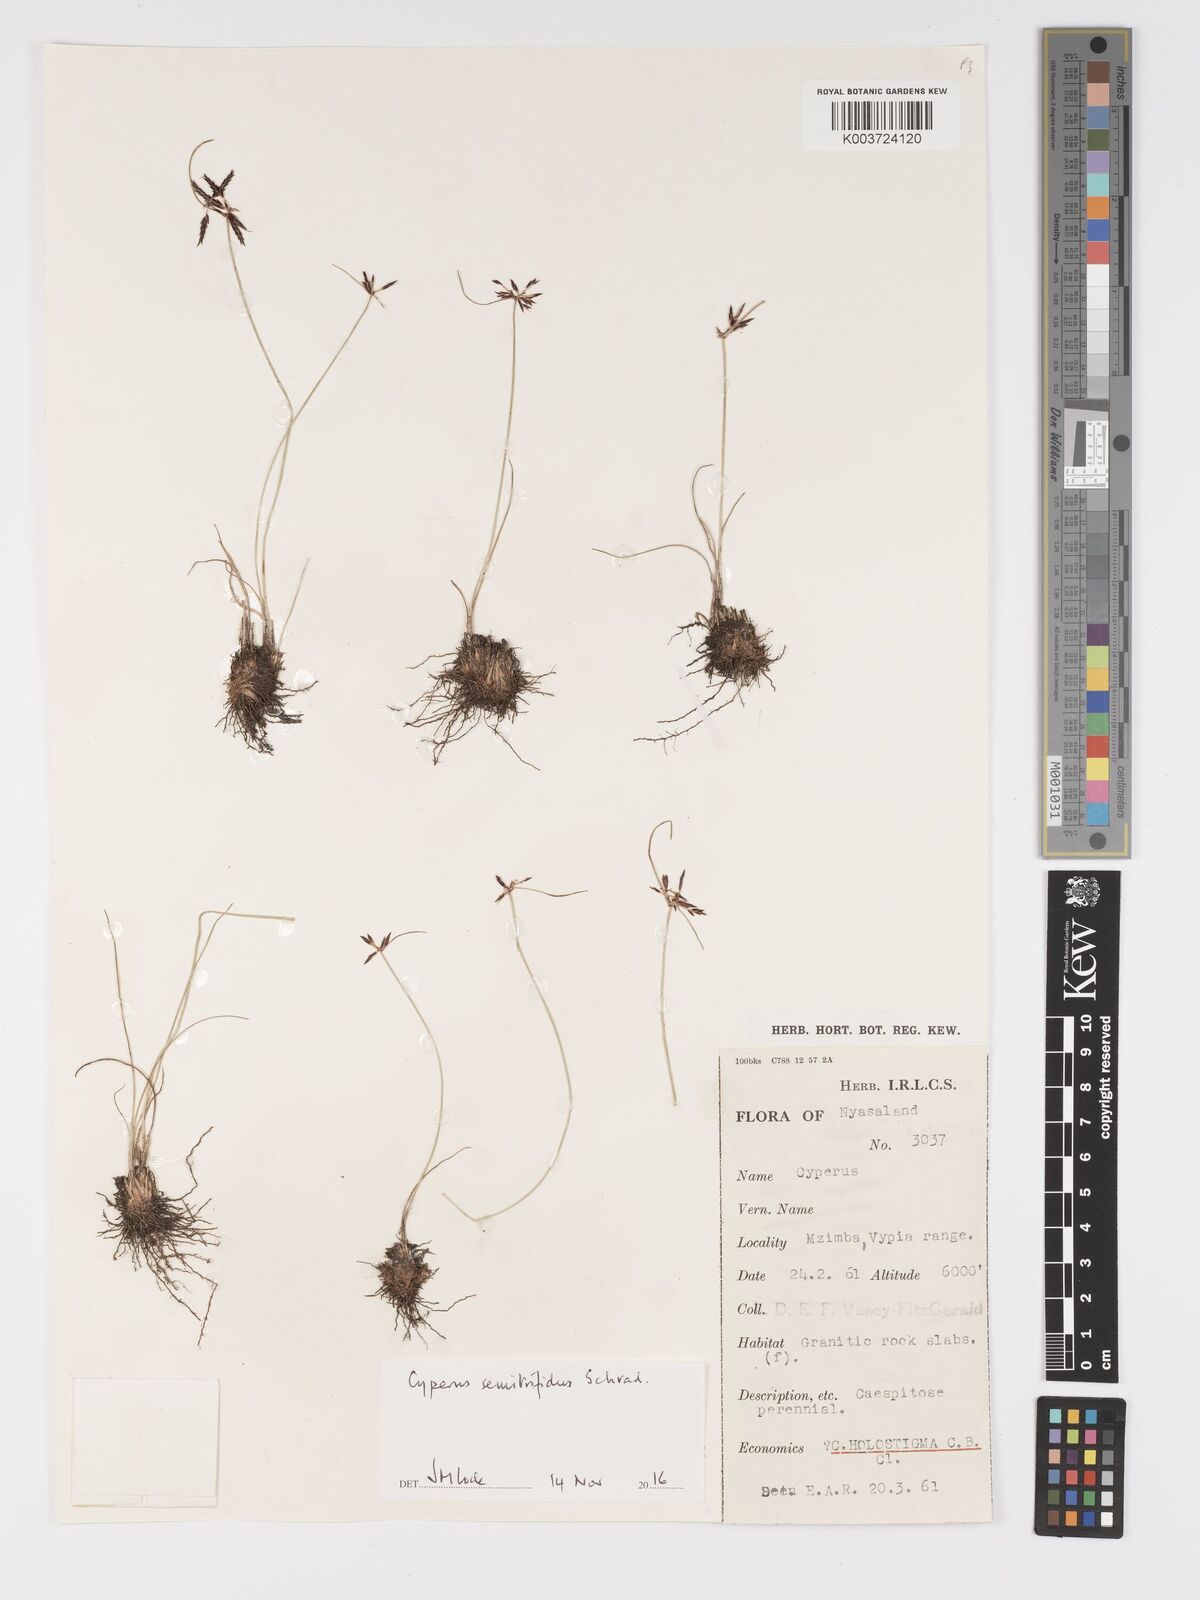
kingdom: Plantae
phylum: Tracheophyta
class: Liliopsida
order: Poales
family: Cyperaceae
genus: Cyperus
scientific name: Cyperus semitrifidus
